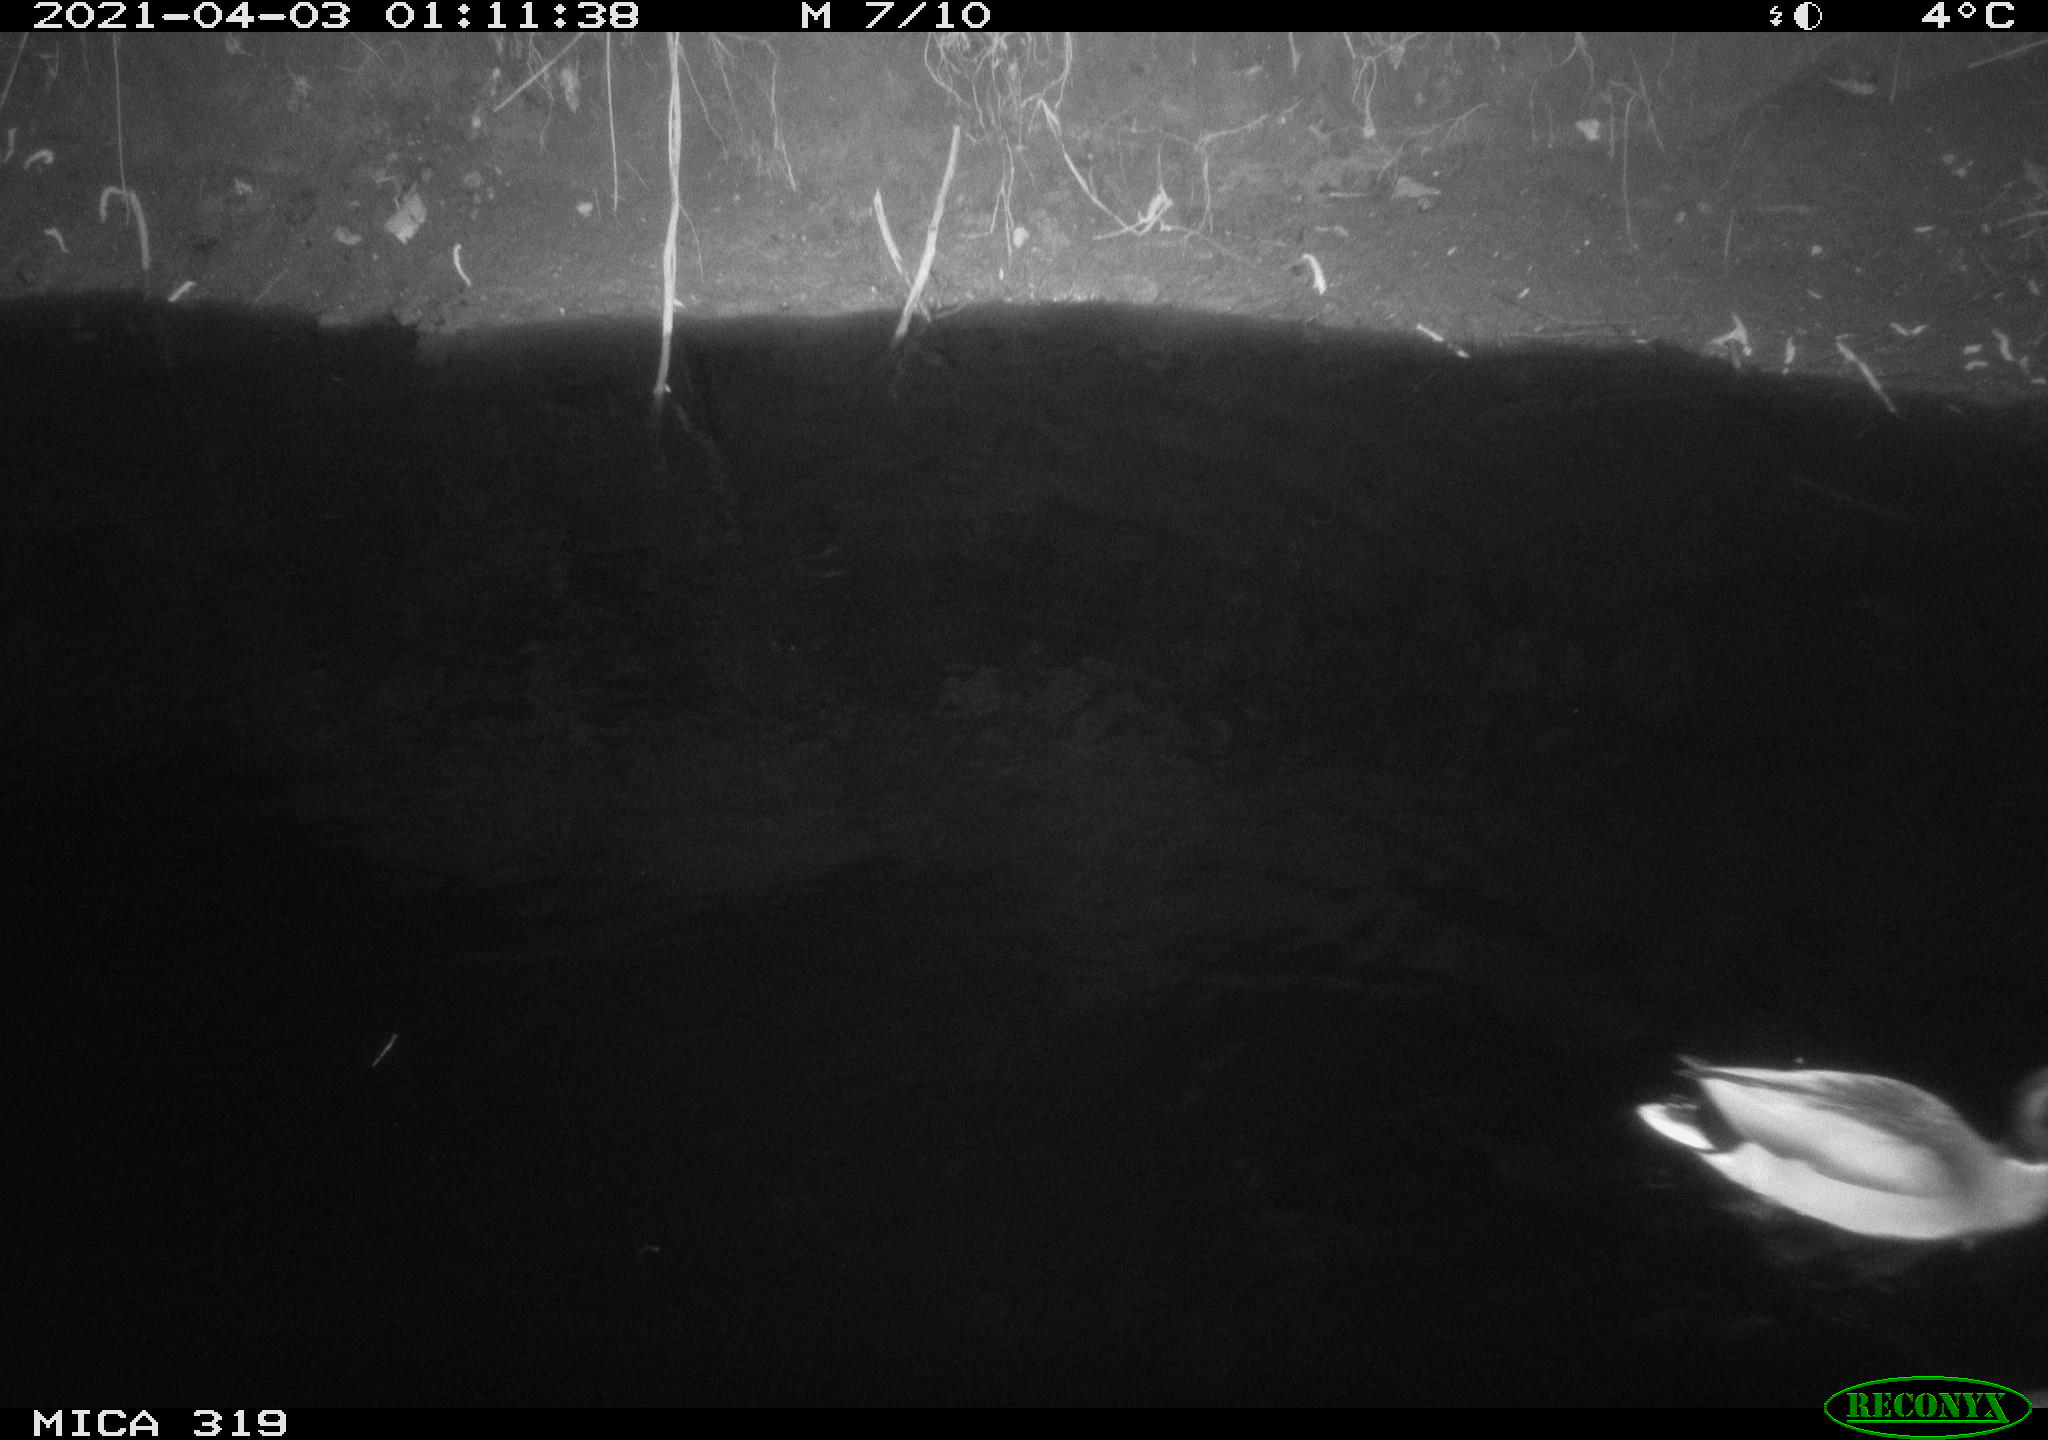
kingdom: Animalia
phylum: Chordata
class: Aves
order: Anseriformes
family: Anatidae
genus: Anas
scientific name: Anas platyrhynchos
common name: Mallard
